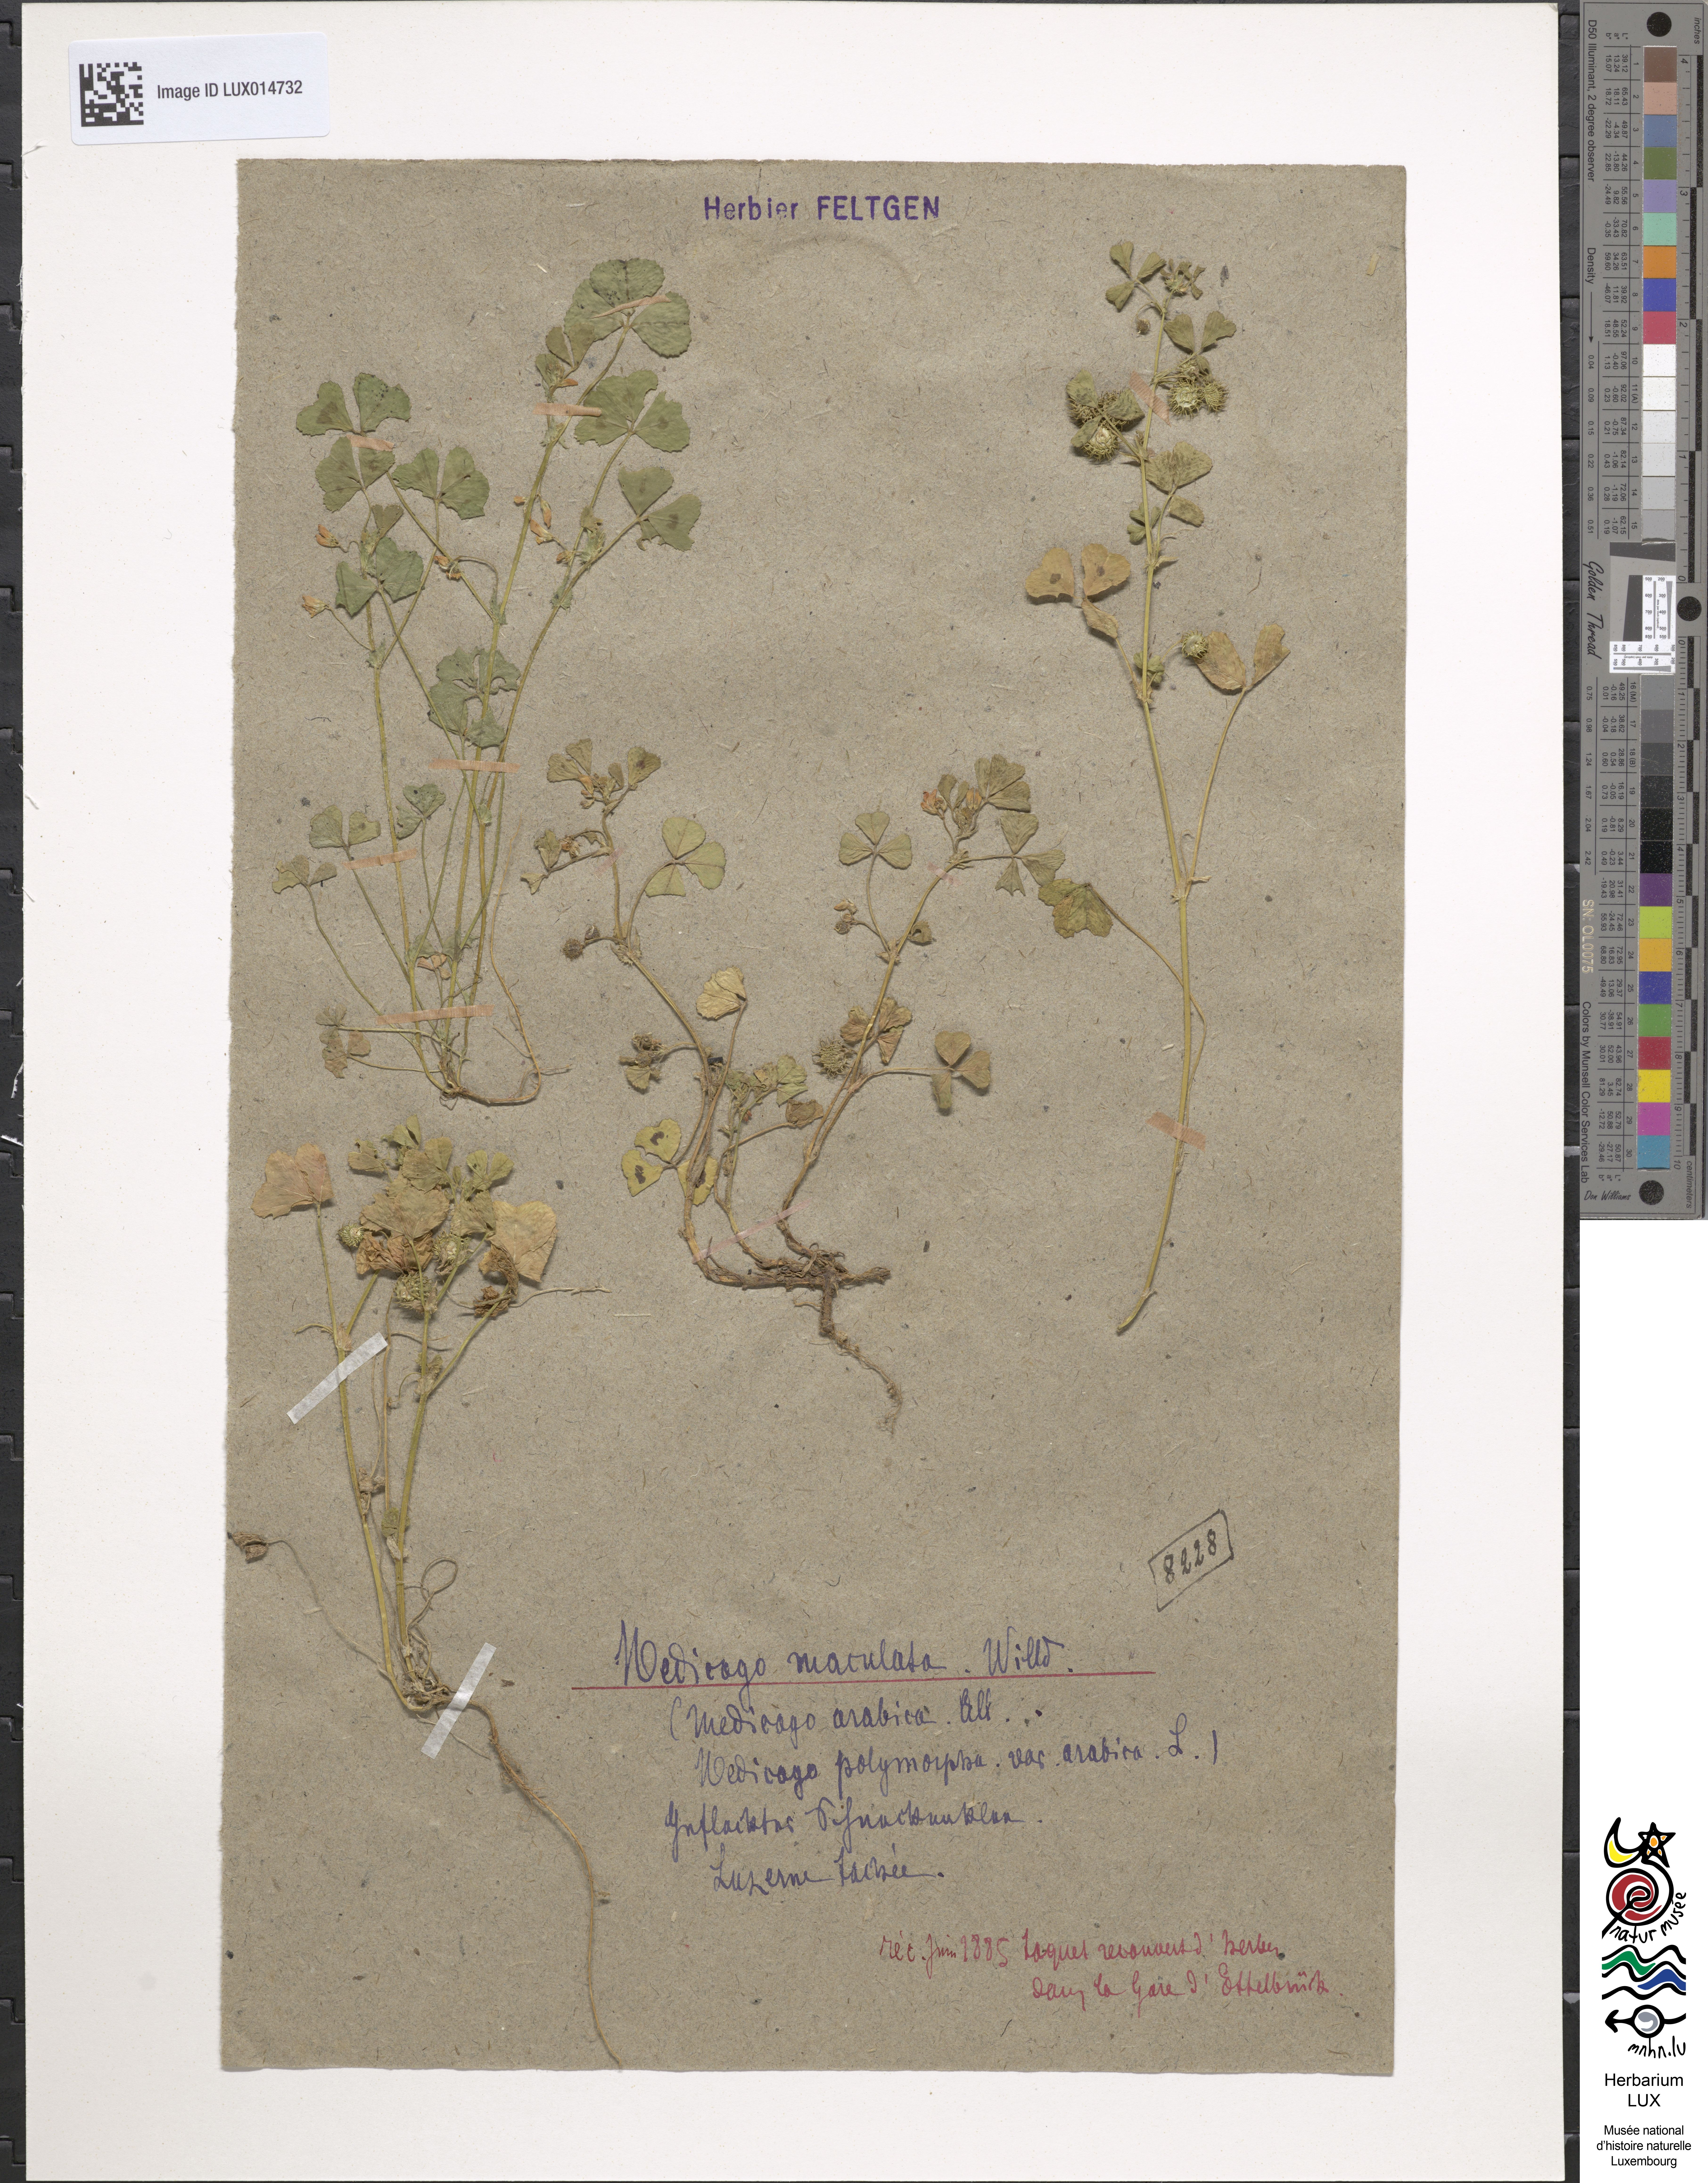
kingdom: Plantae
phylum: Tracheophyta
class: Magnoliopsida
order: Fabales
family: Fabaceae
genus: Medicago
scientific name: Medicago arabica
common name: Spotted medick
